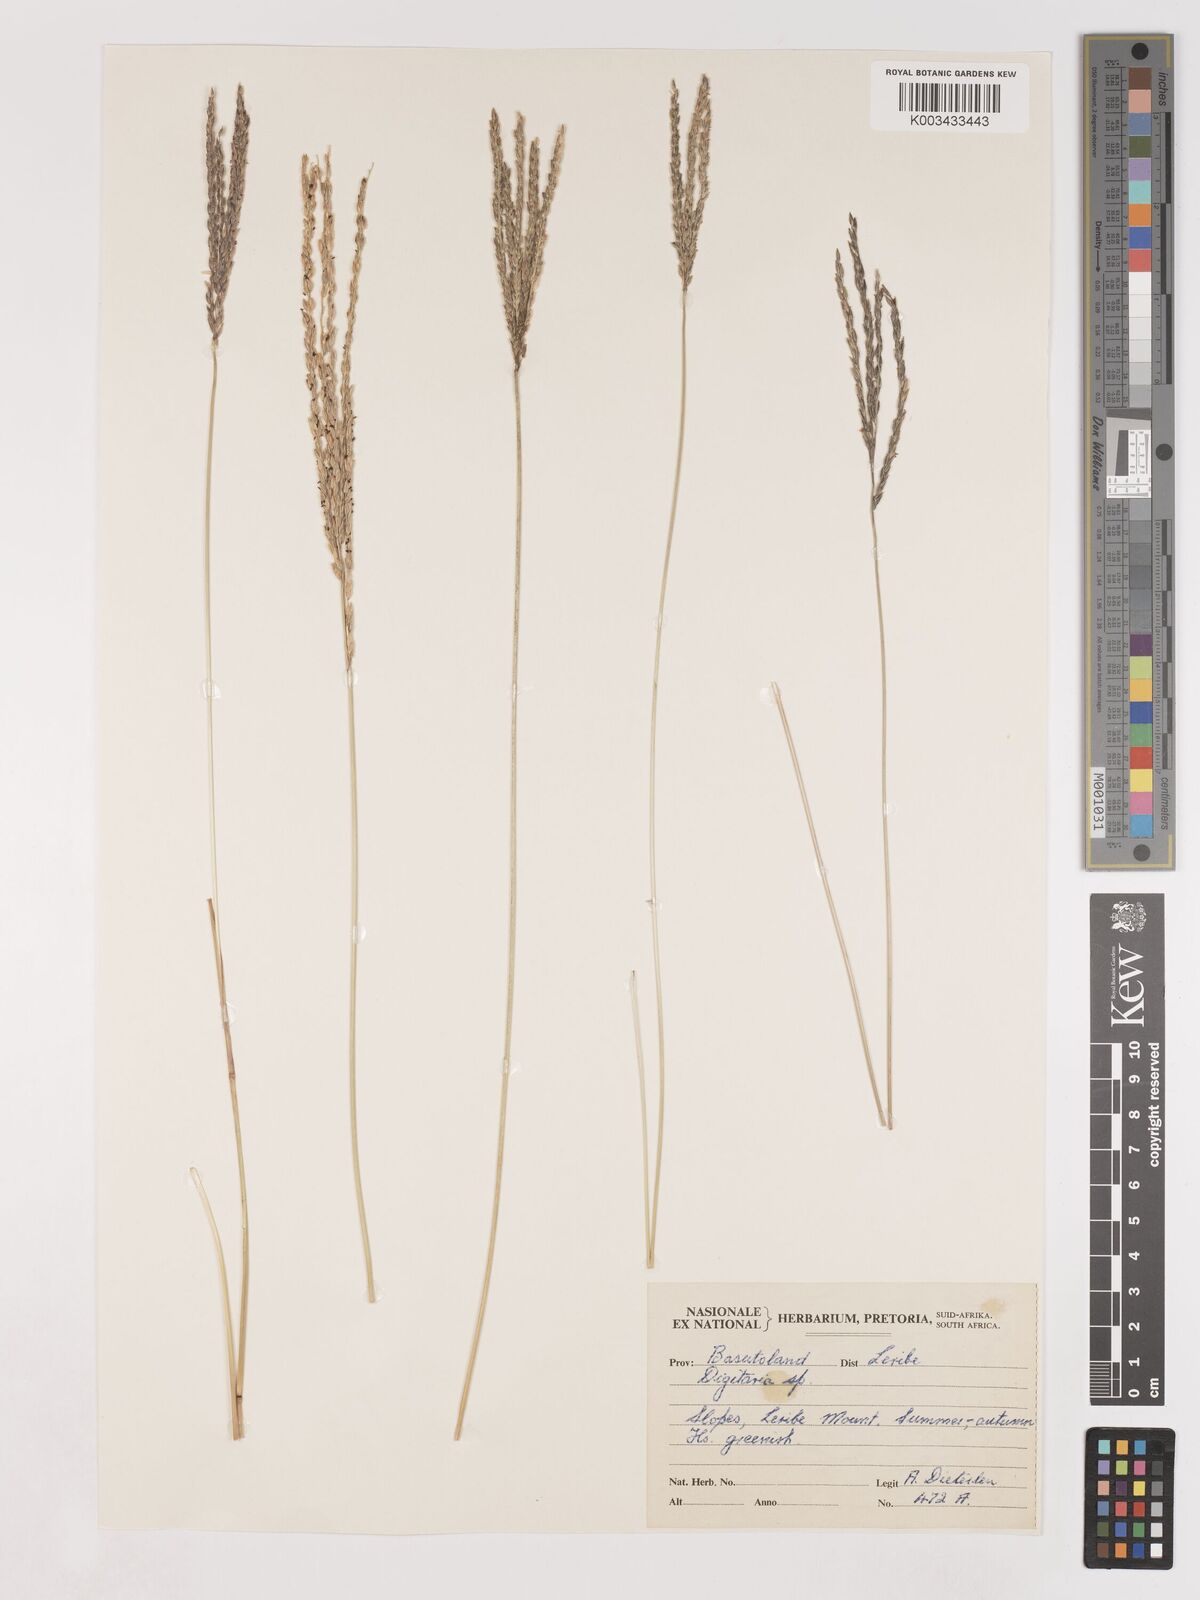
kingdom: Plantae
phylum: Tracheophyta
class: Liliopsida
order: Poales
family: Poaceae
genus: Digitaria
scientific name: Digitaria eriantha
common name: Digitgrass
